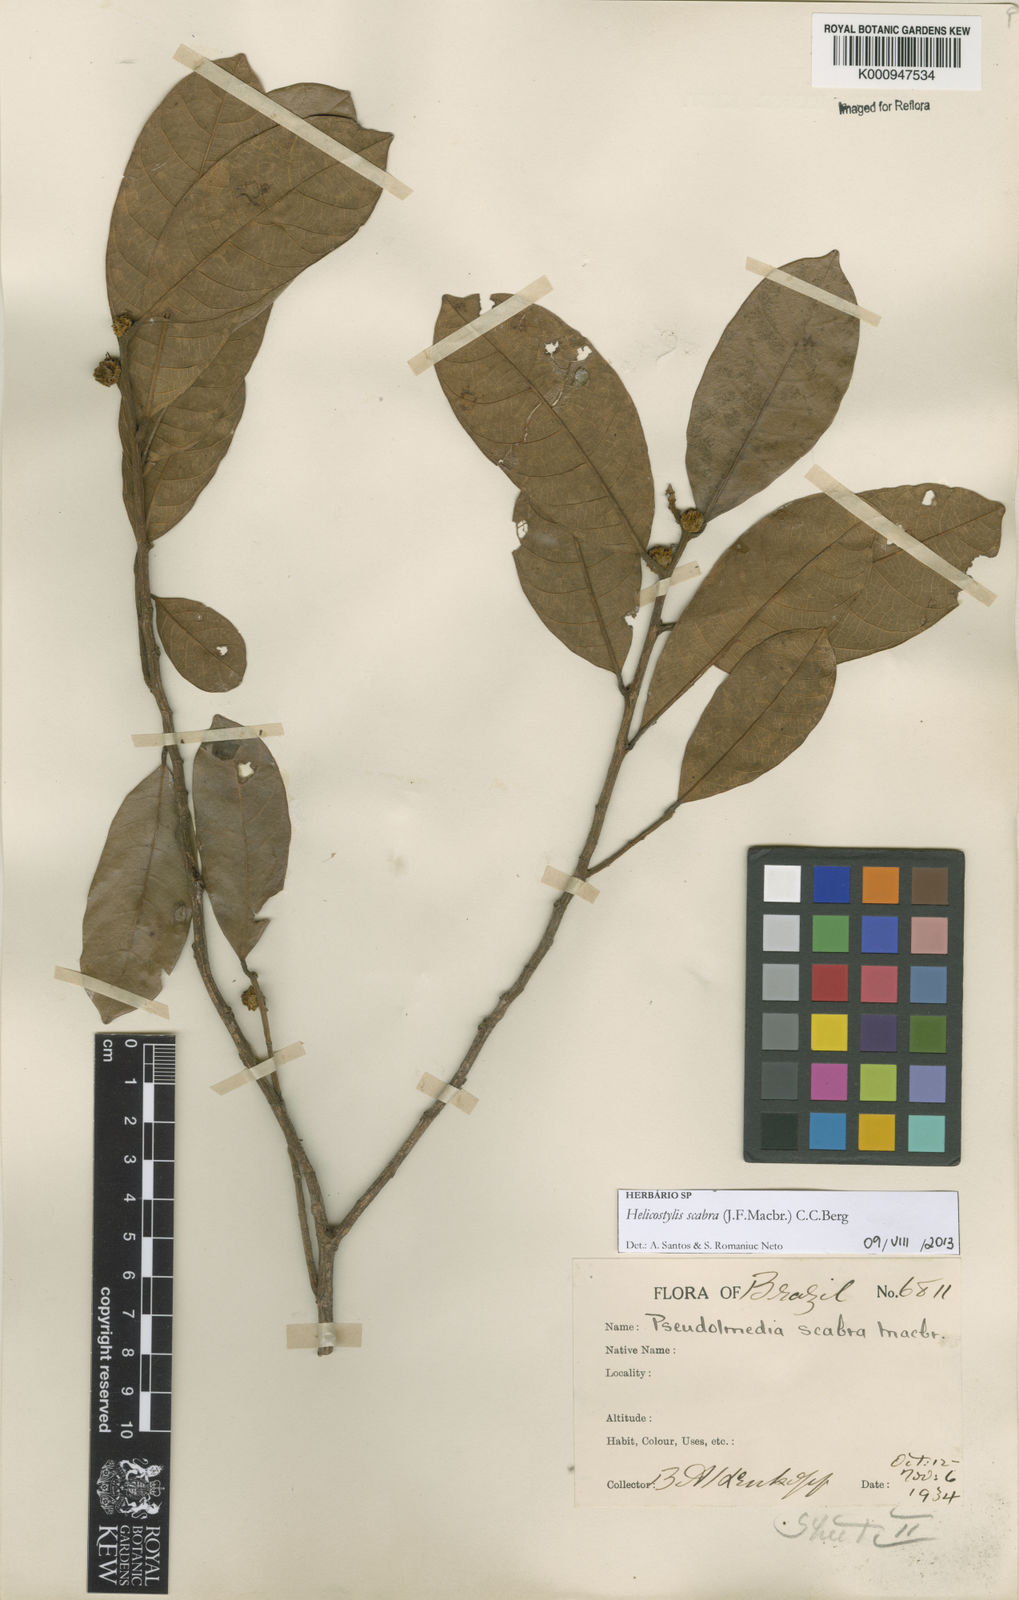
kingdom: Plantae
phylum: Tracheophyta
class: Magnoliopsida
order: Rosales
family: Moraceae
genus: Helicostylis
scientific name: Helicostylis scabra
